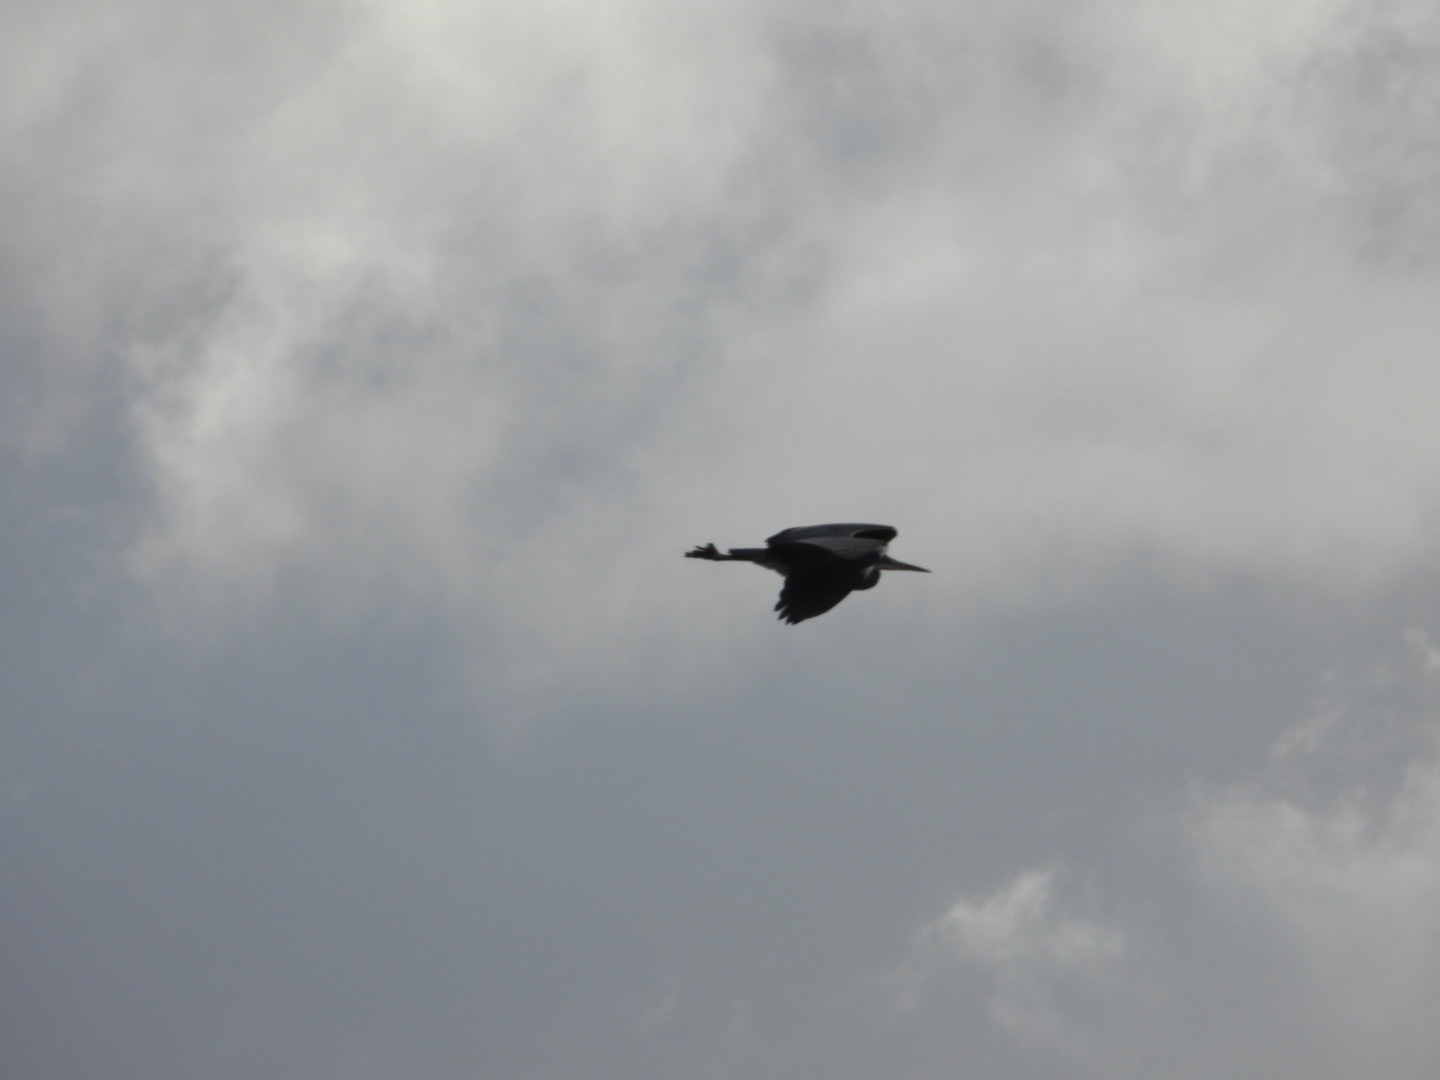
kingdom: Animalia
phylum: Chordata
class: Aves
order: Pelecaniformes
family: Ardeidae
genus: Ardea
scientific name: Ardea cinerea
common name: Fiskehejre
